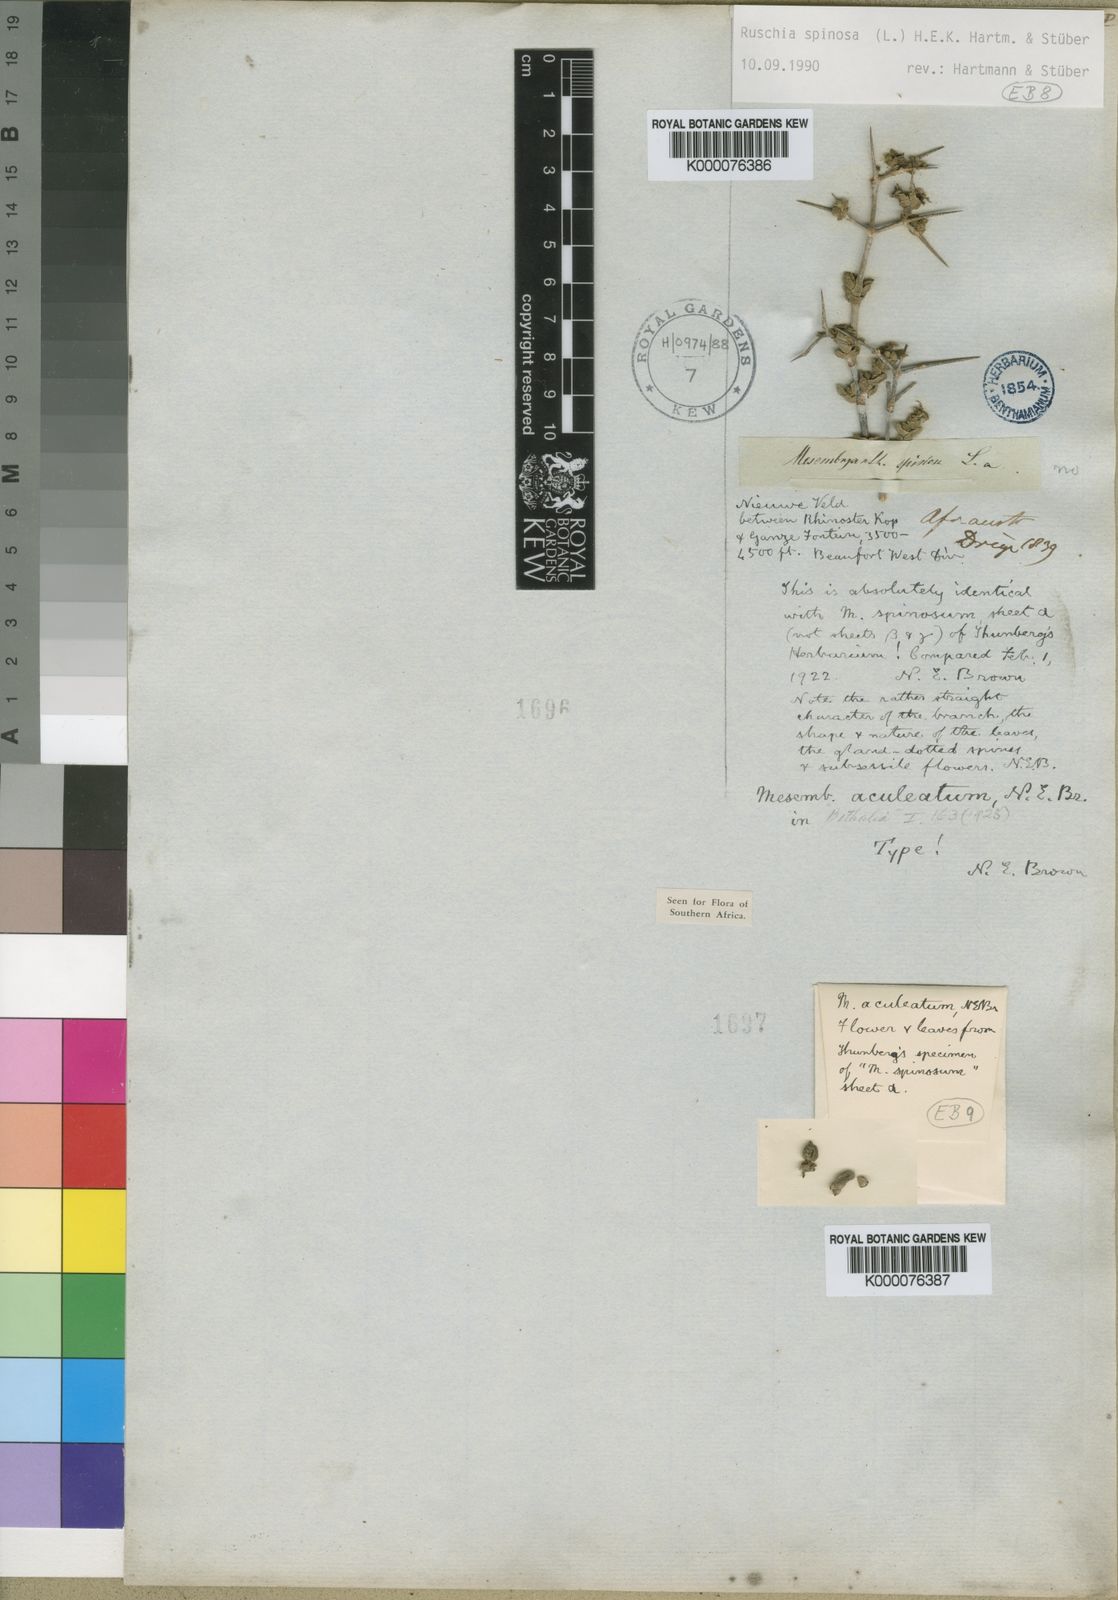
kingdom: Plantae
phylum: Tracheophyta
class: Magnoliopsida
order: Caryophyllales
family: Aizoaceae
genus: Ruschia
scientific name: Ruschia spinosa
